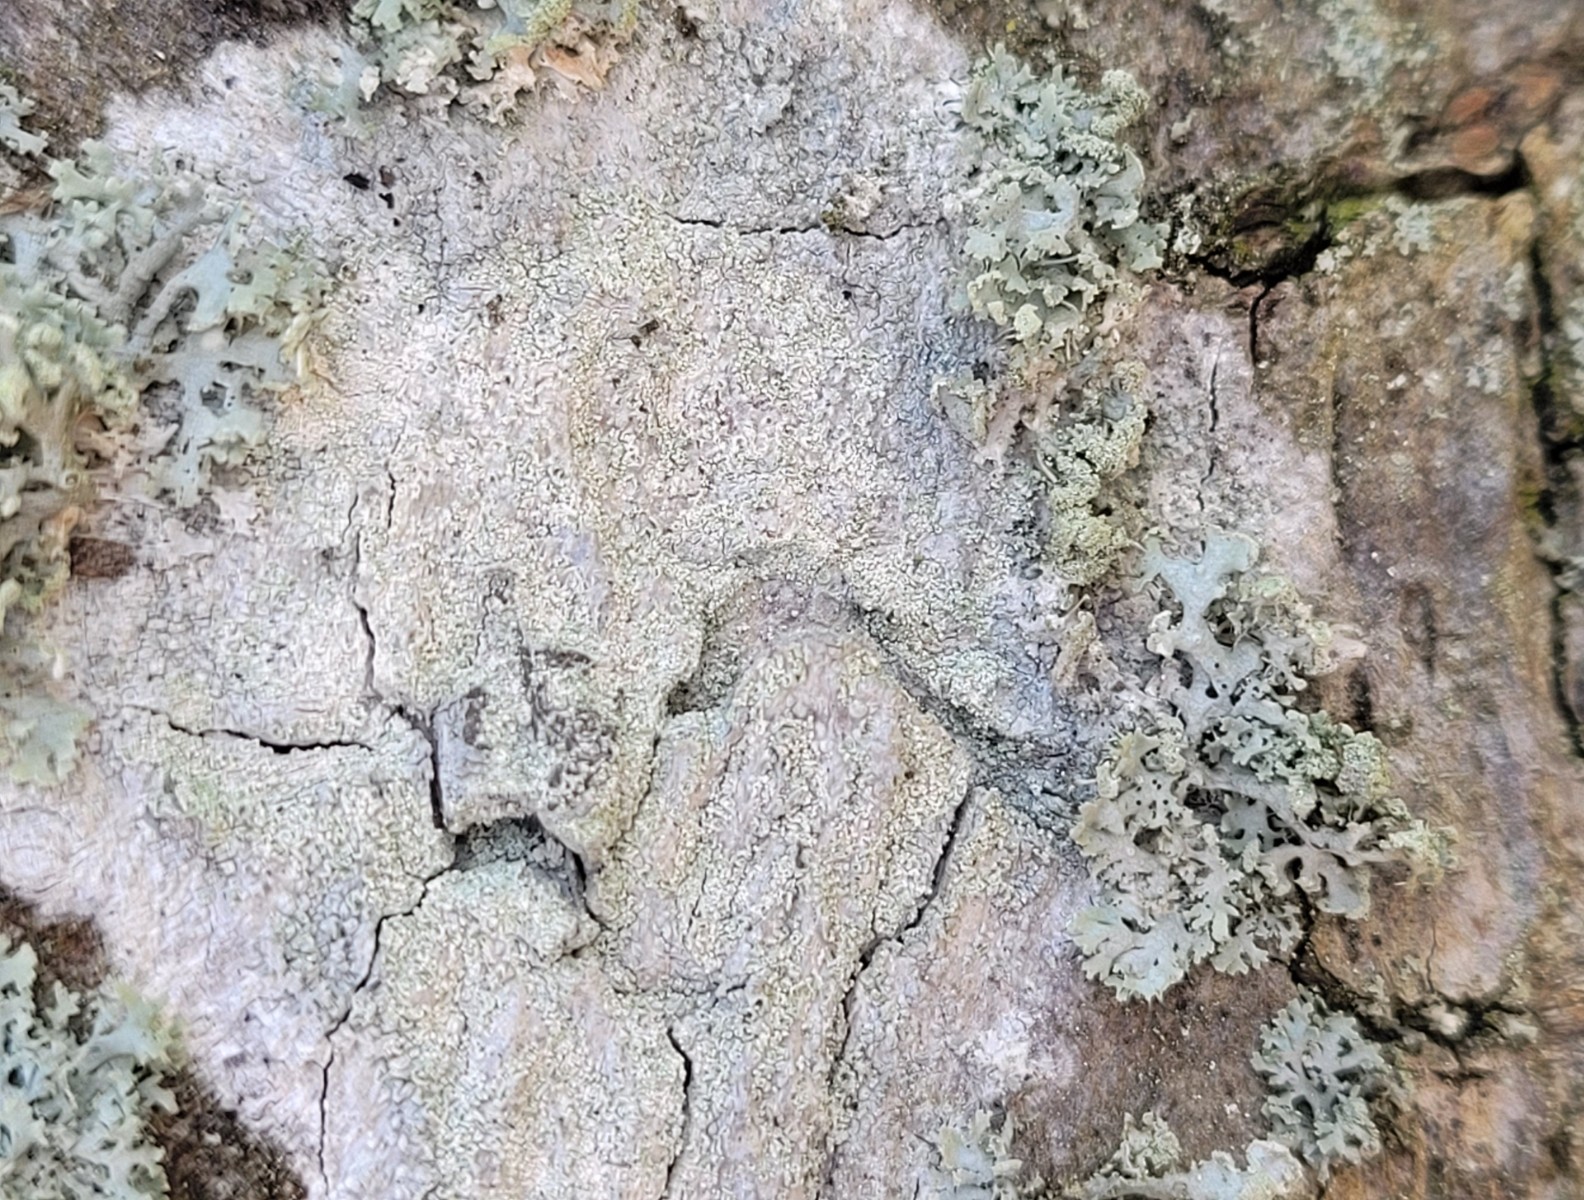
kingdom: Fungi
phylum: Ascomycota
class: Lecanoromycetes
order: Ostropales
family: Phlyctidaceae
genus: Phlyctis
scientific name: Phlyctis argena
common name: almindelig sølvlav
